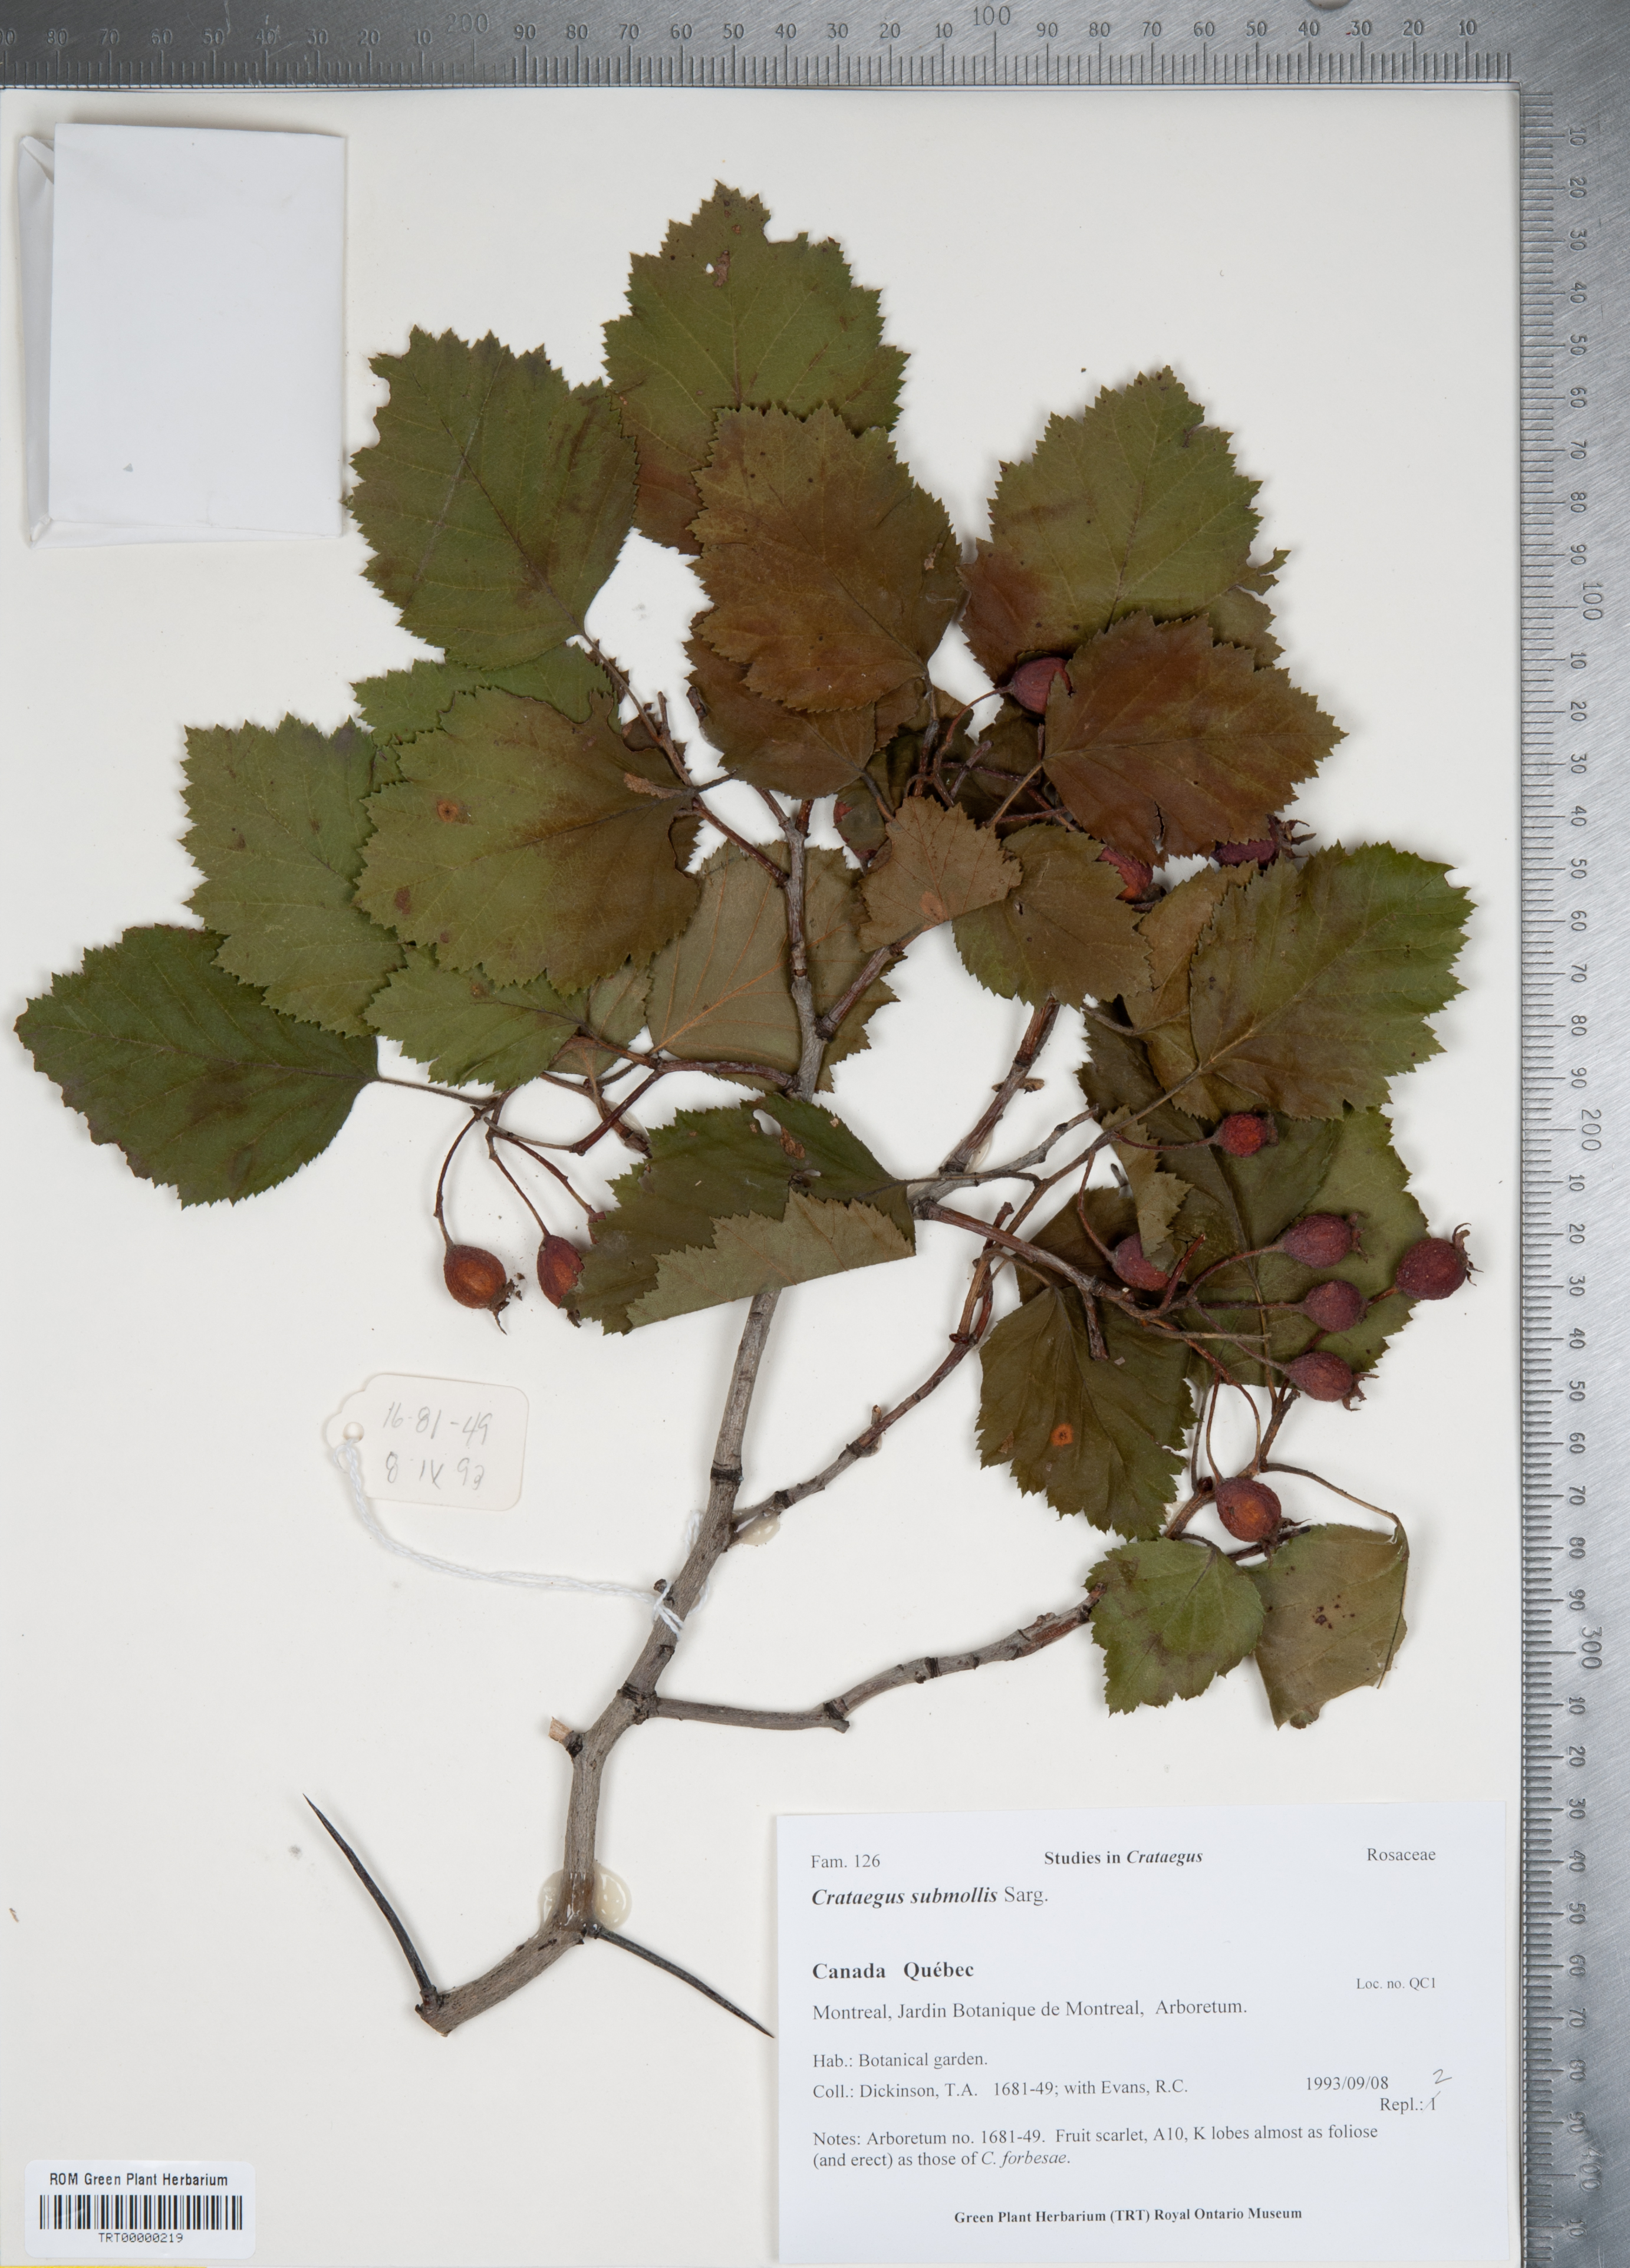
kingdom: Plantae
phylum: Tracheophyta
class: Magnoliopsida
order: Rosales
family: Rosaceae
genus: Crataegus
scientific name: Crataegus submollis
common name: Hairy cockspurthorn
